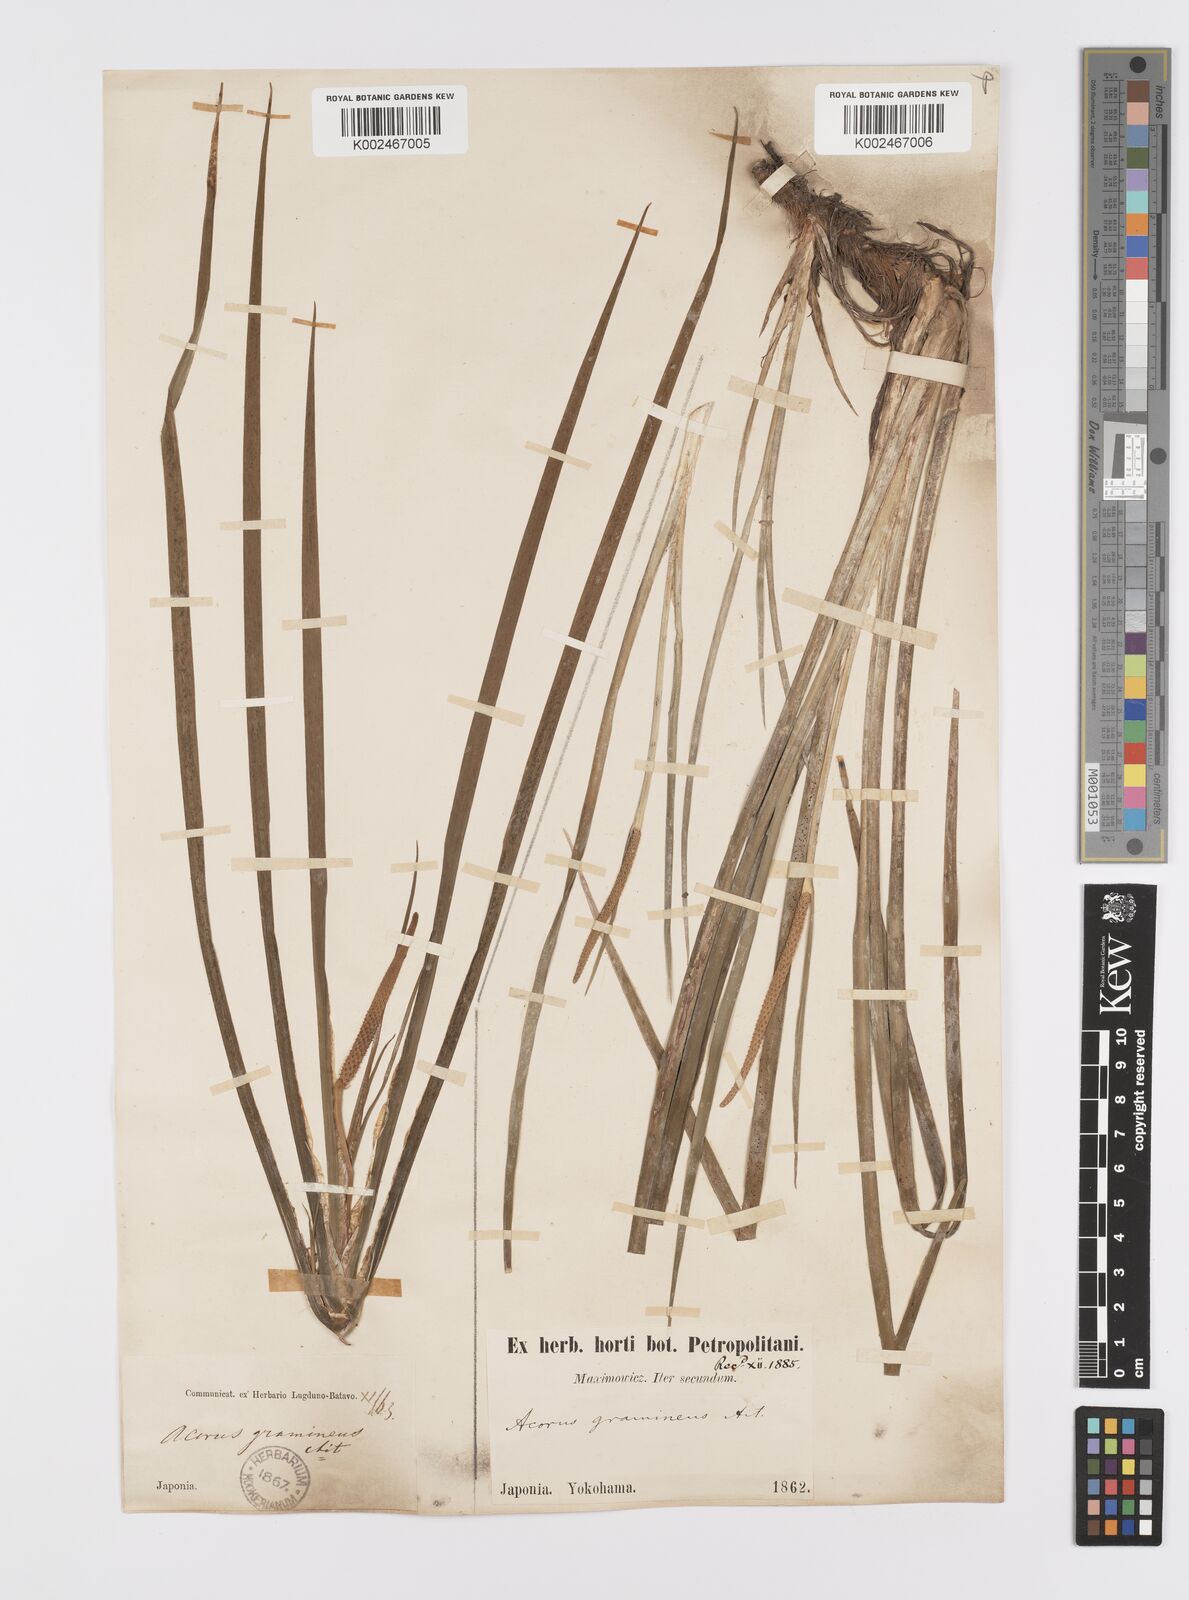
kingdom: Plantae
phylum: Tracheophyta
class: Liliopsida
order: Acorales
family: Acoraceae
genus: Acorus
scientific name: Acorus gramineus
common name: Slender sweet-flag
